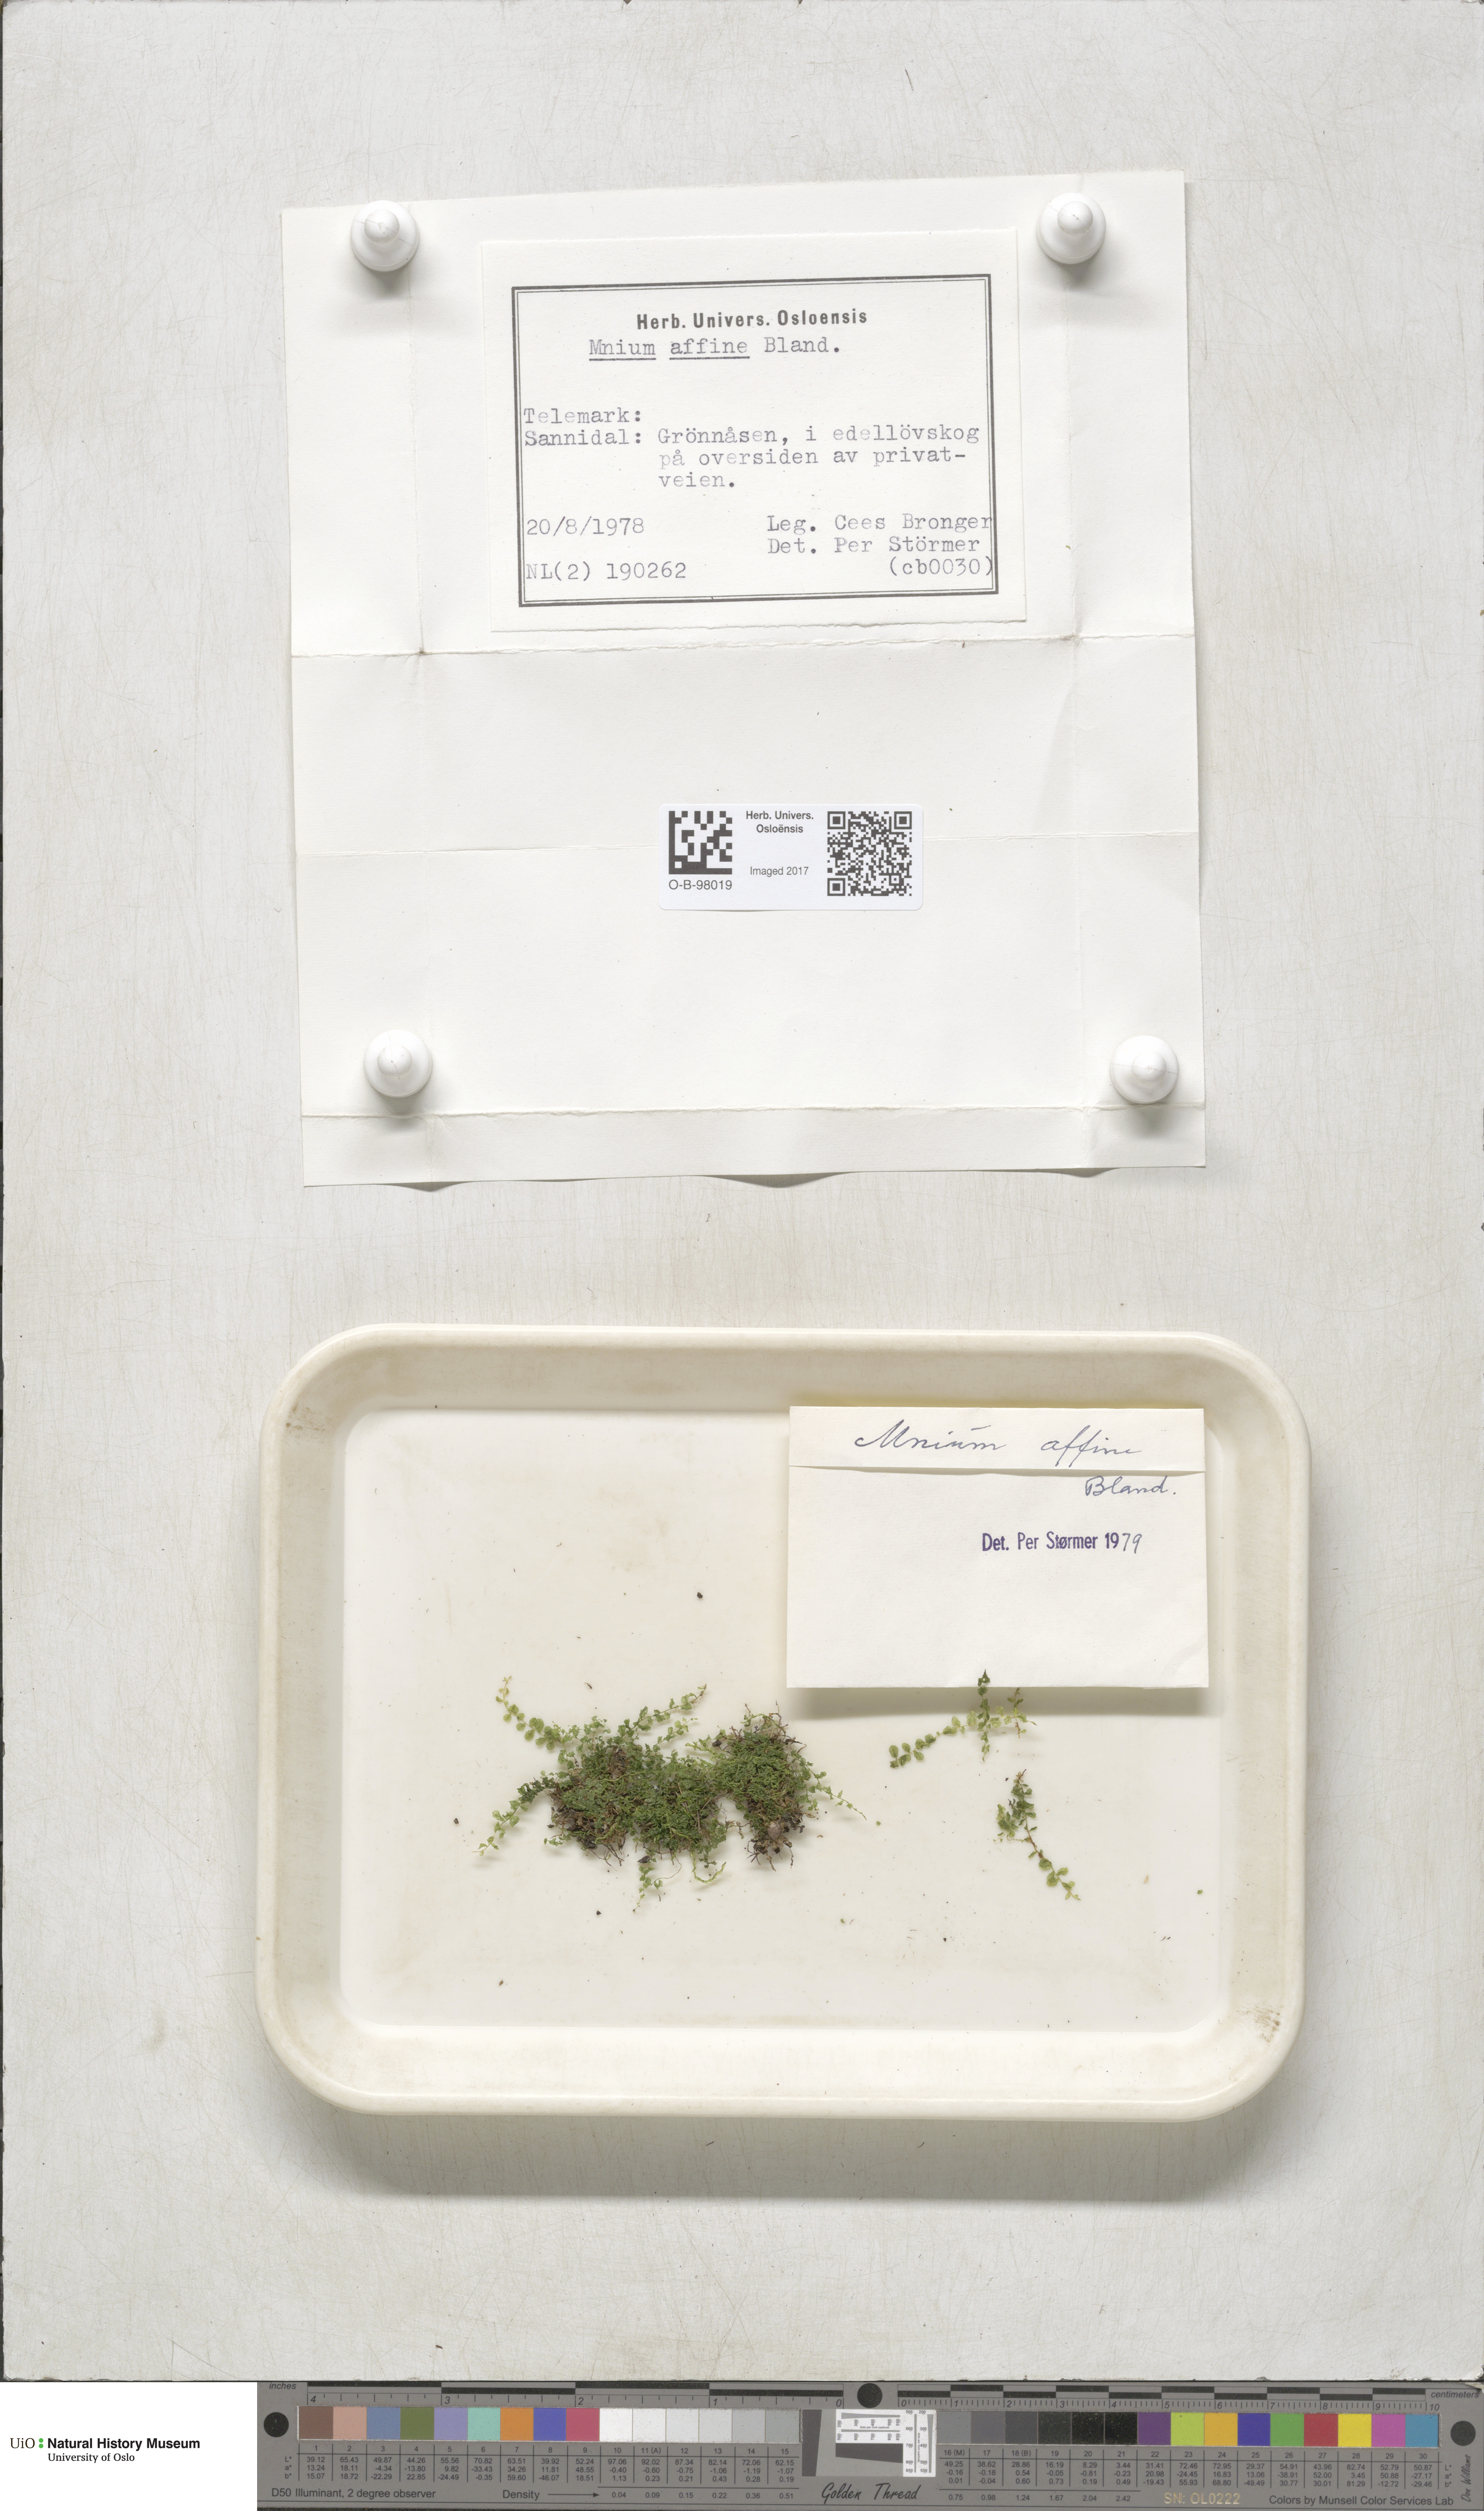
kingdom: Plantae
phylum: Bryophyta
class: Bryopsida
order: Bryales
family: Mniaceae
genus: Plagiomnium
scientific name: Plagiomnium affine
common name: Many-fruited thyme-moss
